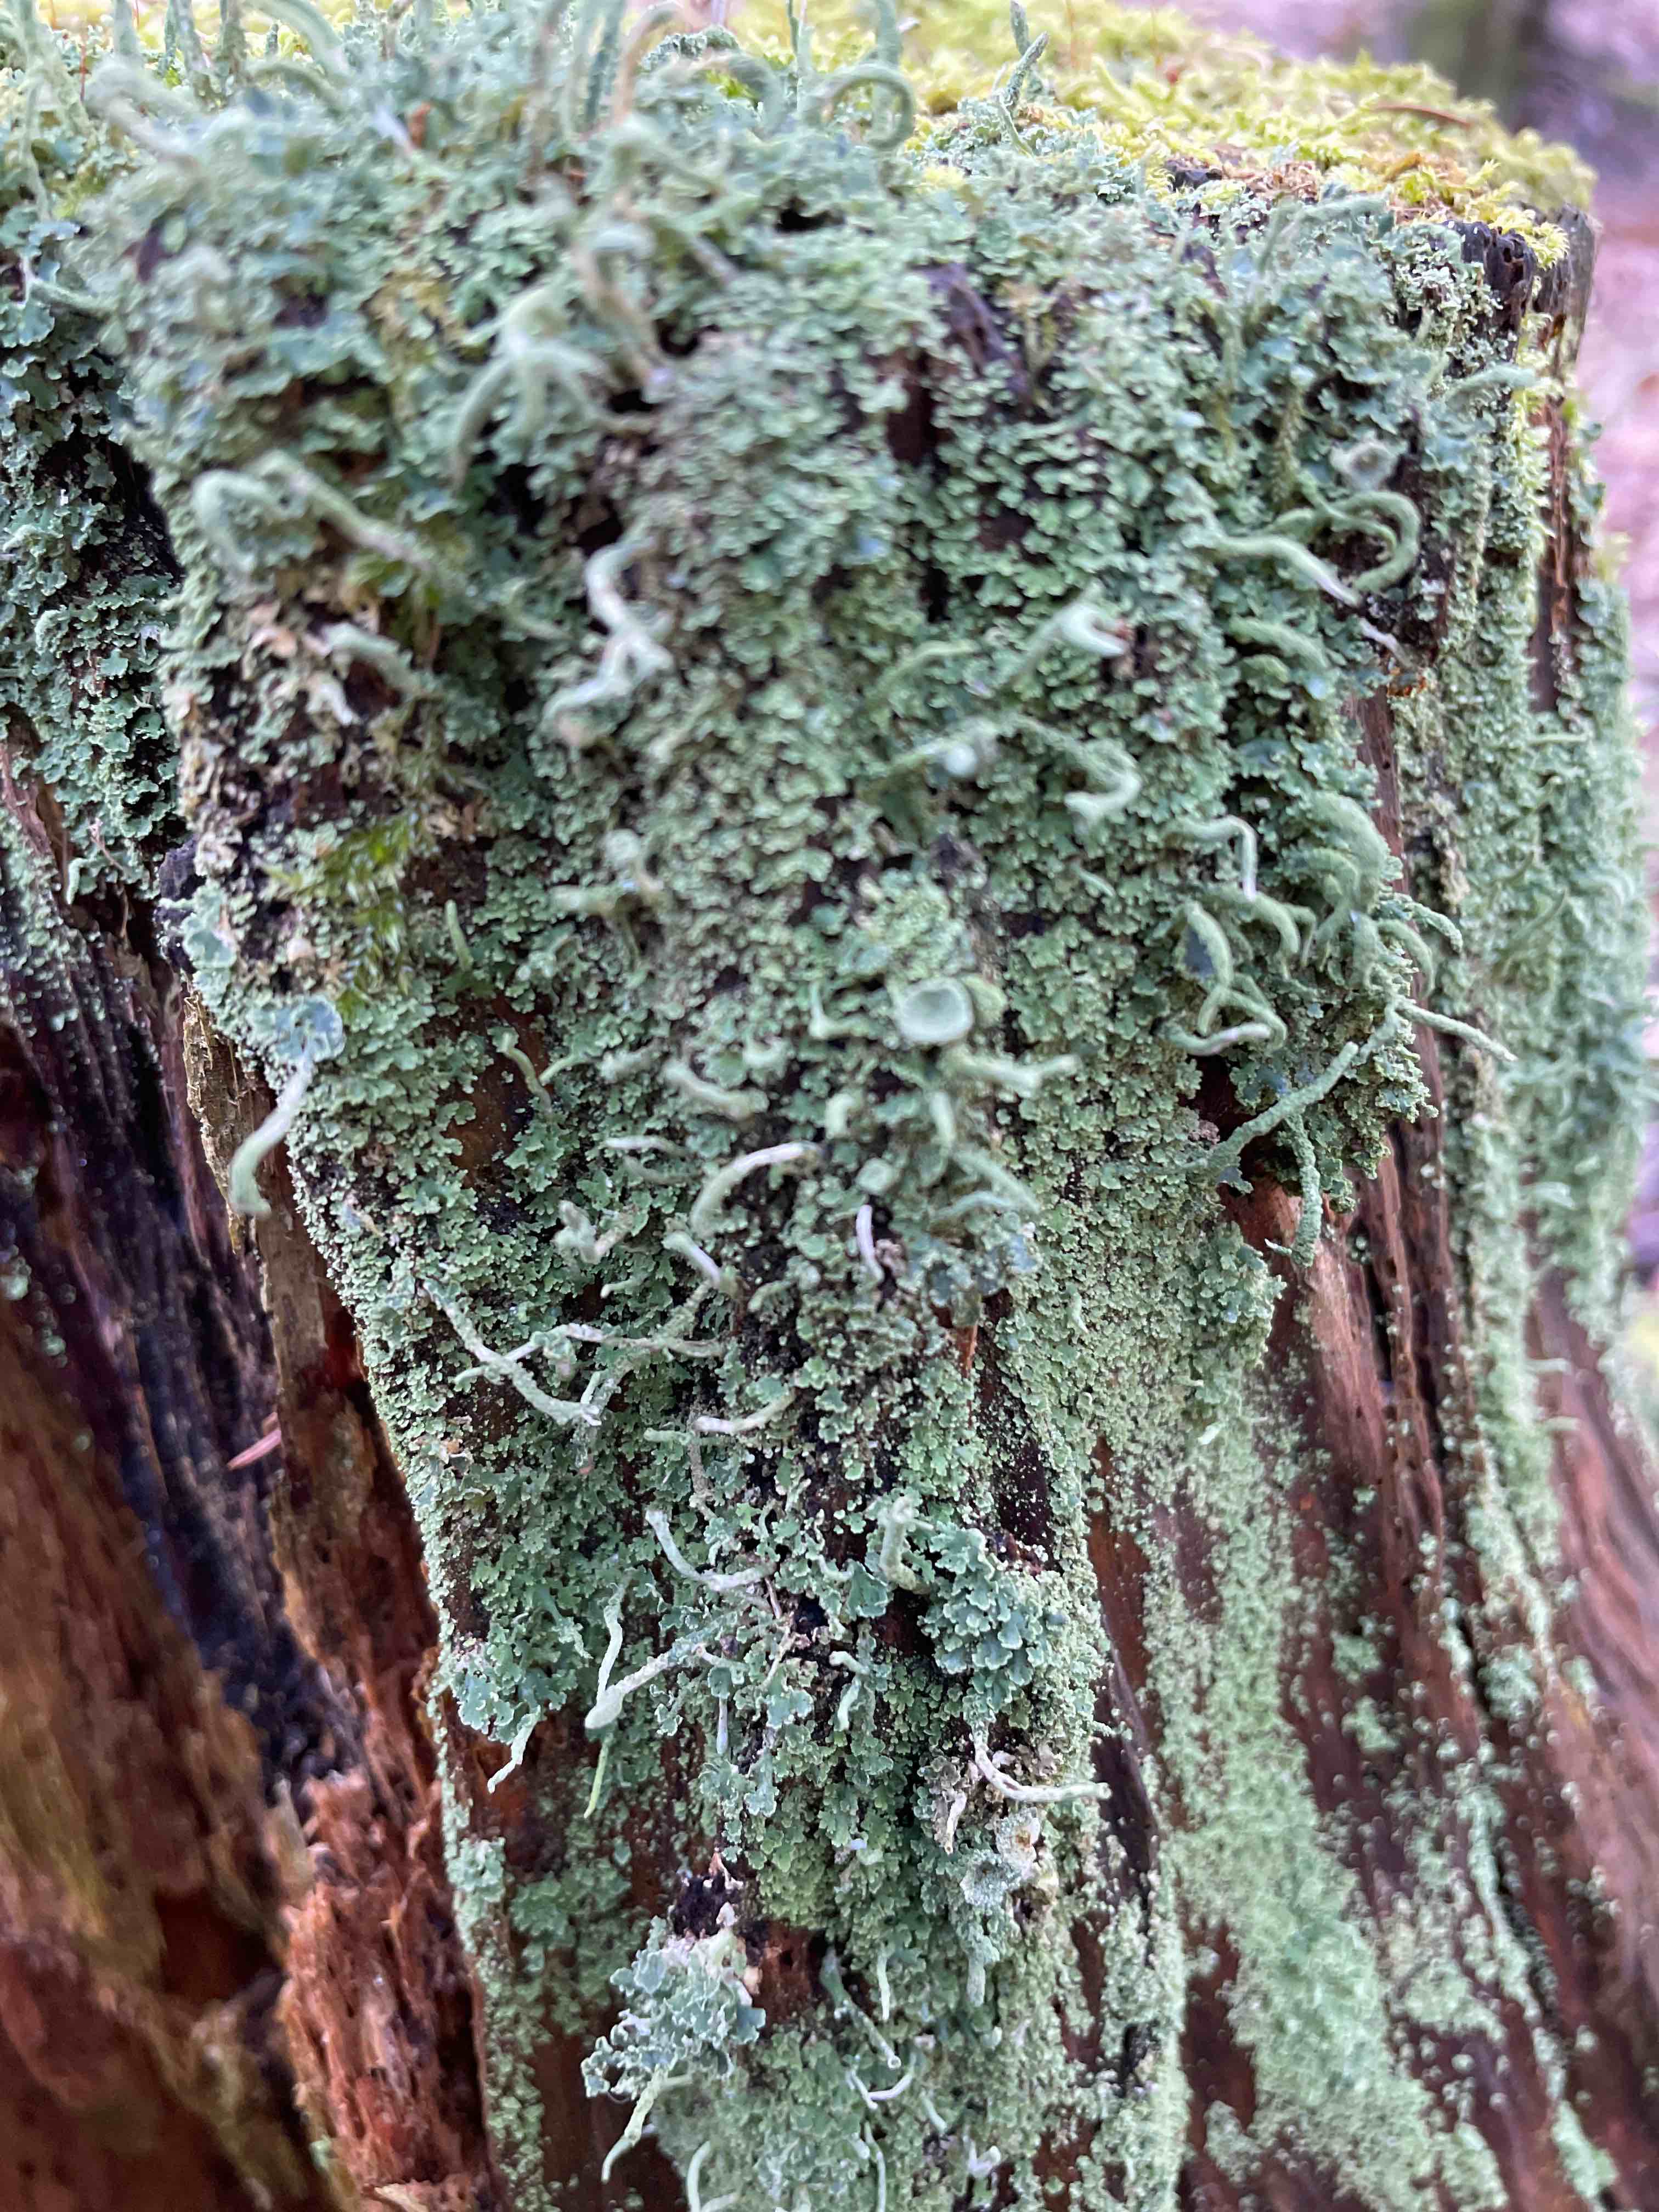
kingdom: Fungi
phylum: Ascomycota
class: Lecanoromycetes
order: Lecanorales
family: Cladoniaceae
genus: Cladonia
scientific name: Cladonia coniocraea
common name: træfods-bægerlav
